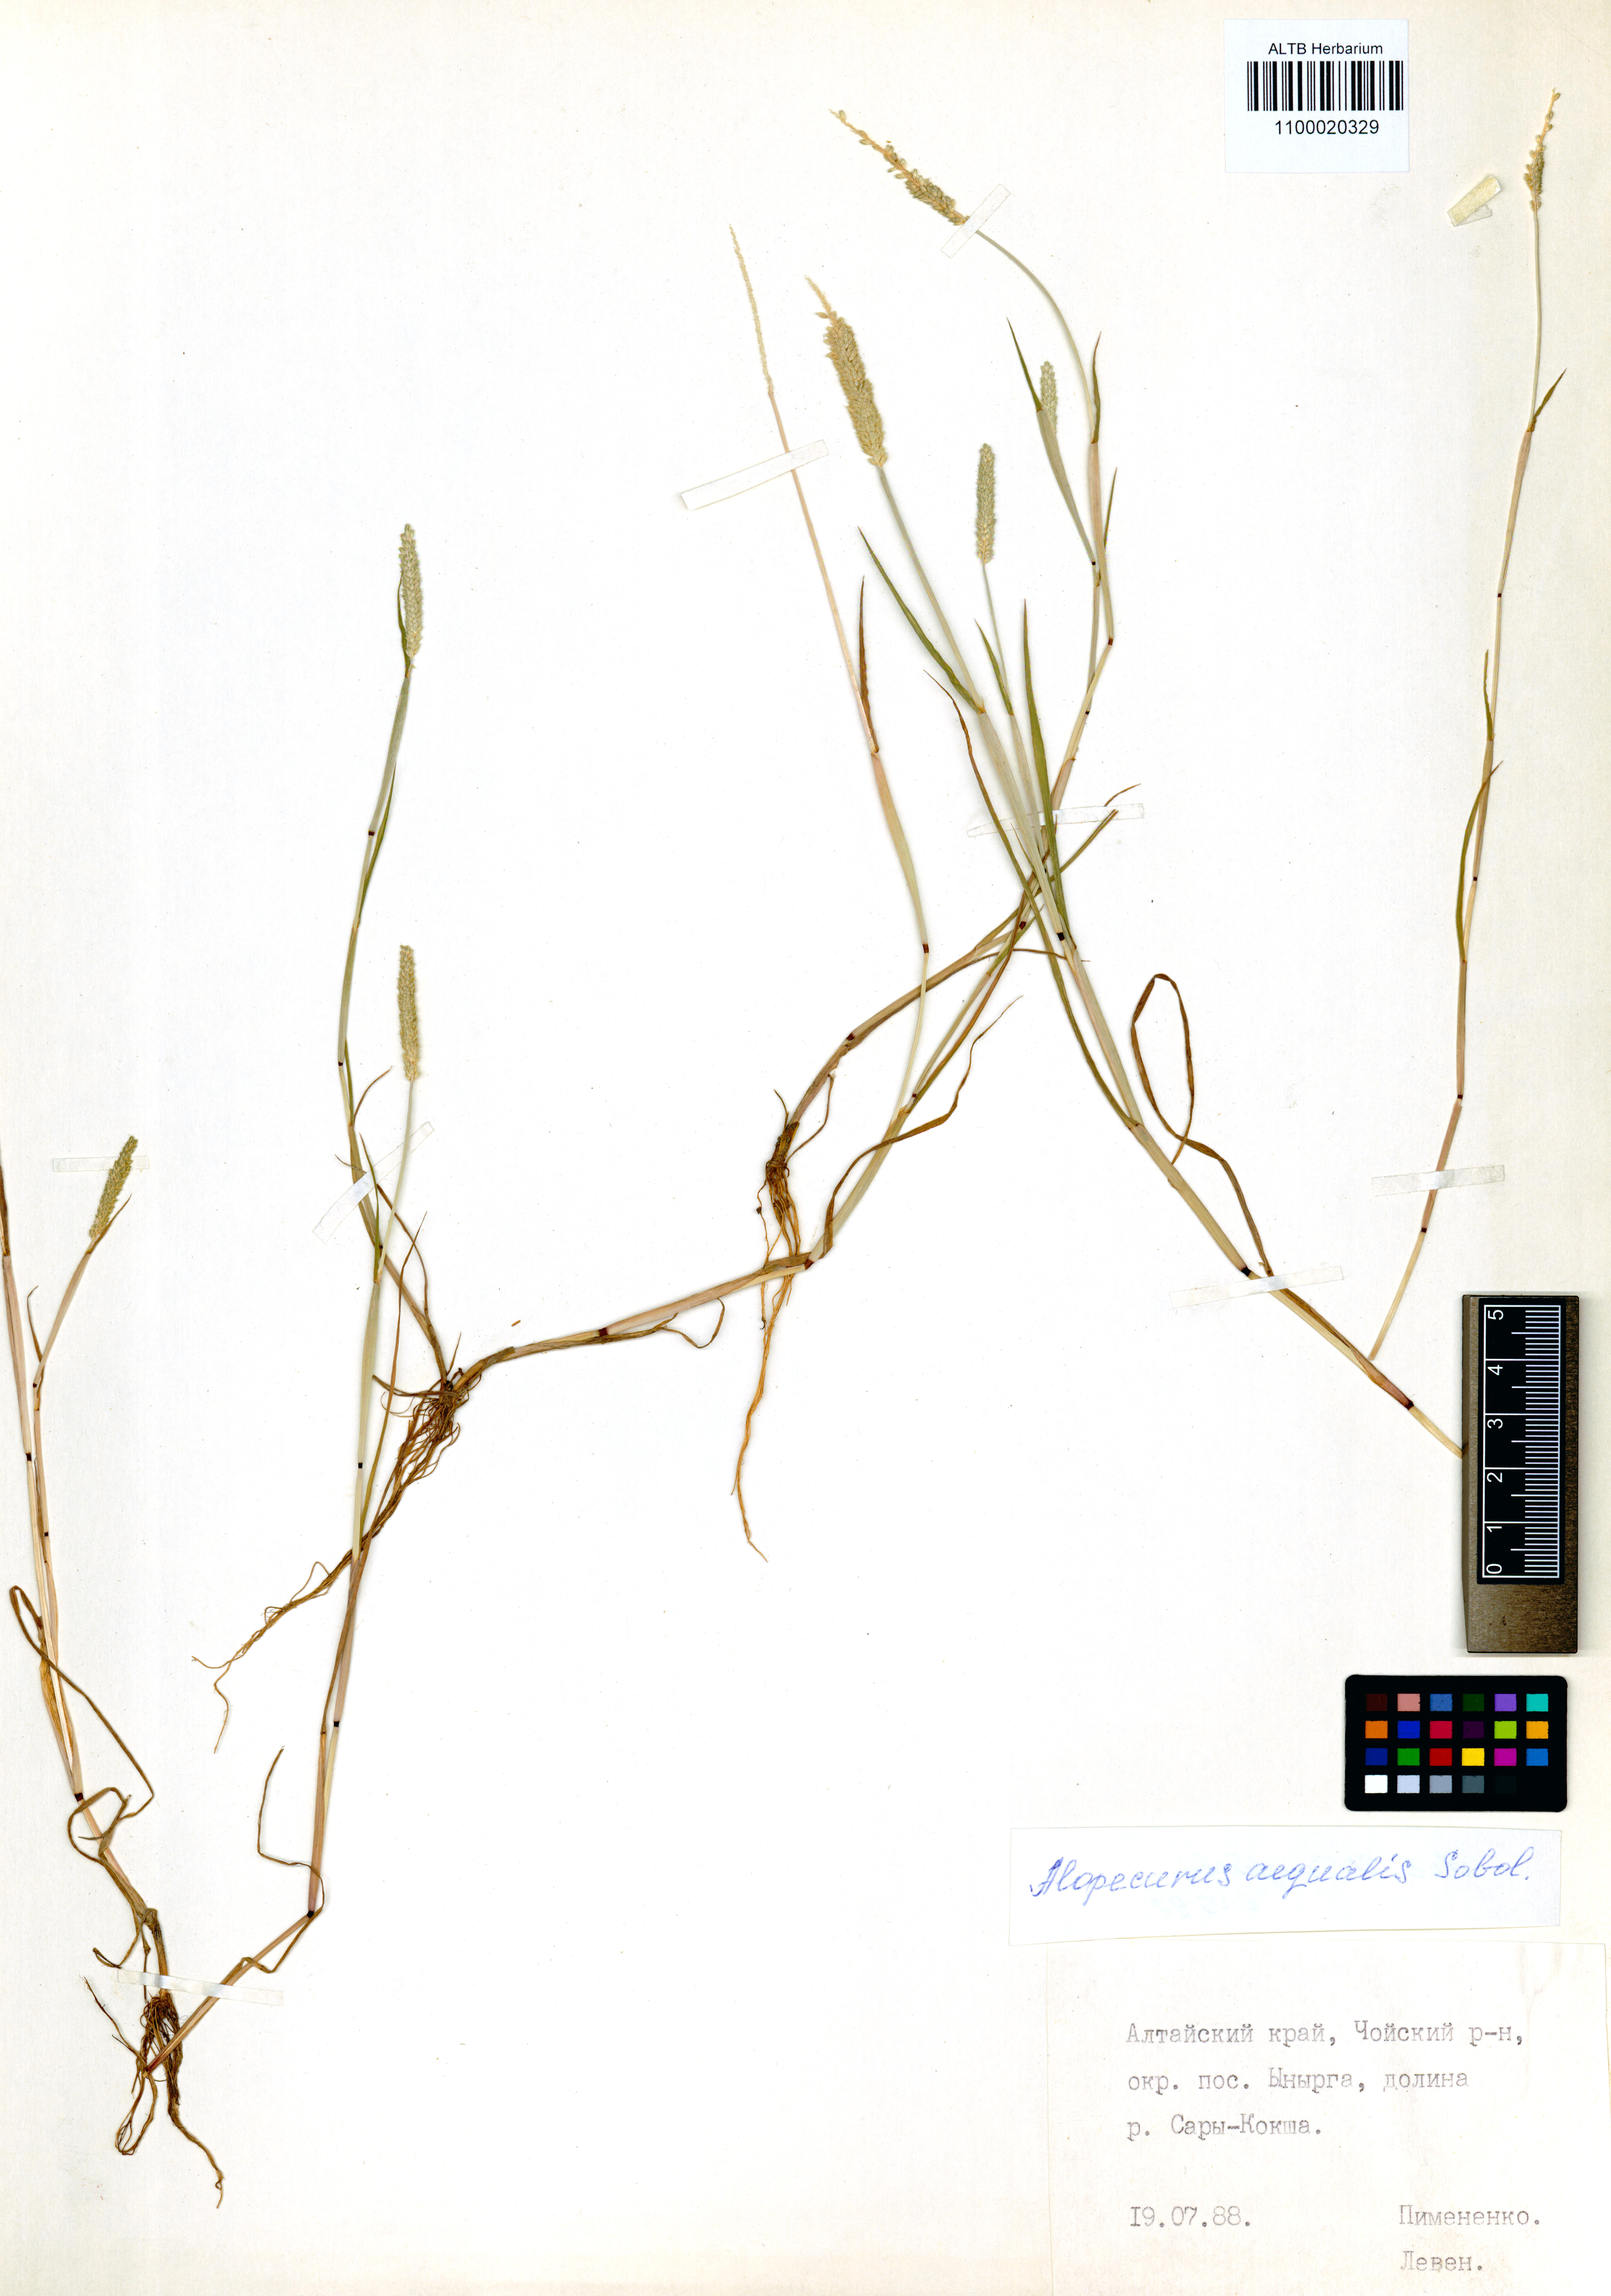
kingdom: Plantae
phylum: Tracheophyta
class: Liliopsida
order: Poales
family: Poaceae
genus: Alopecurus
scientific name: Alopecurus aequalis
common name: Orange foxtail
